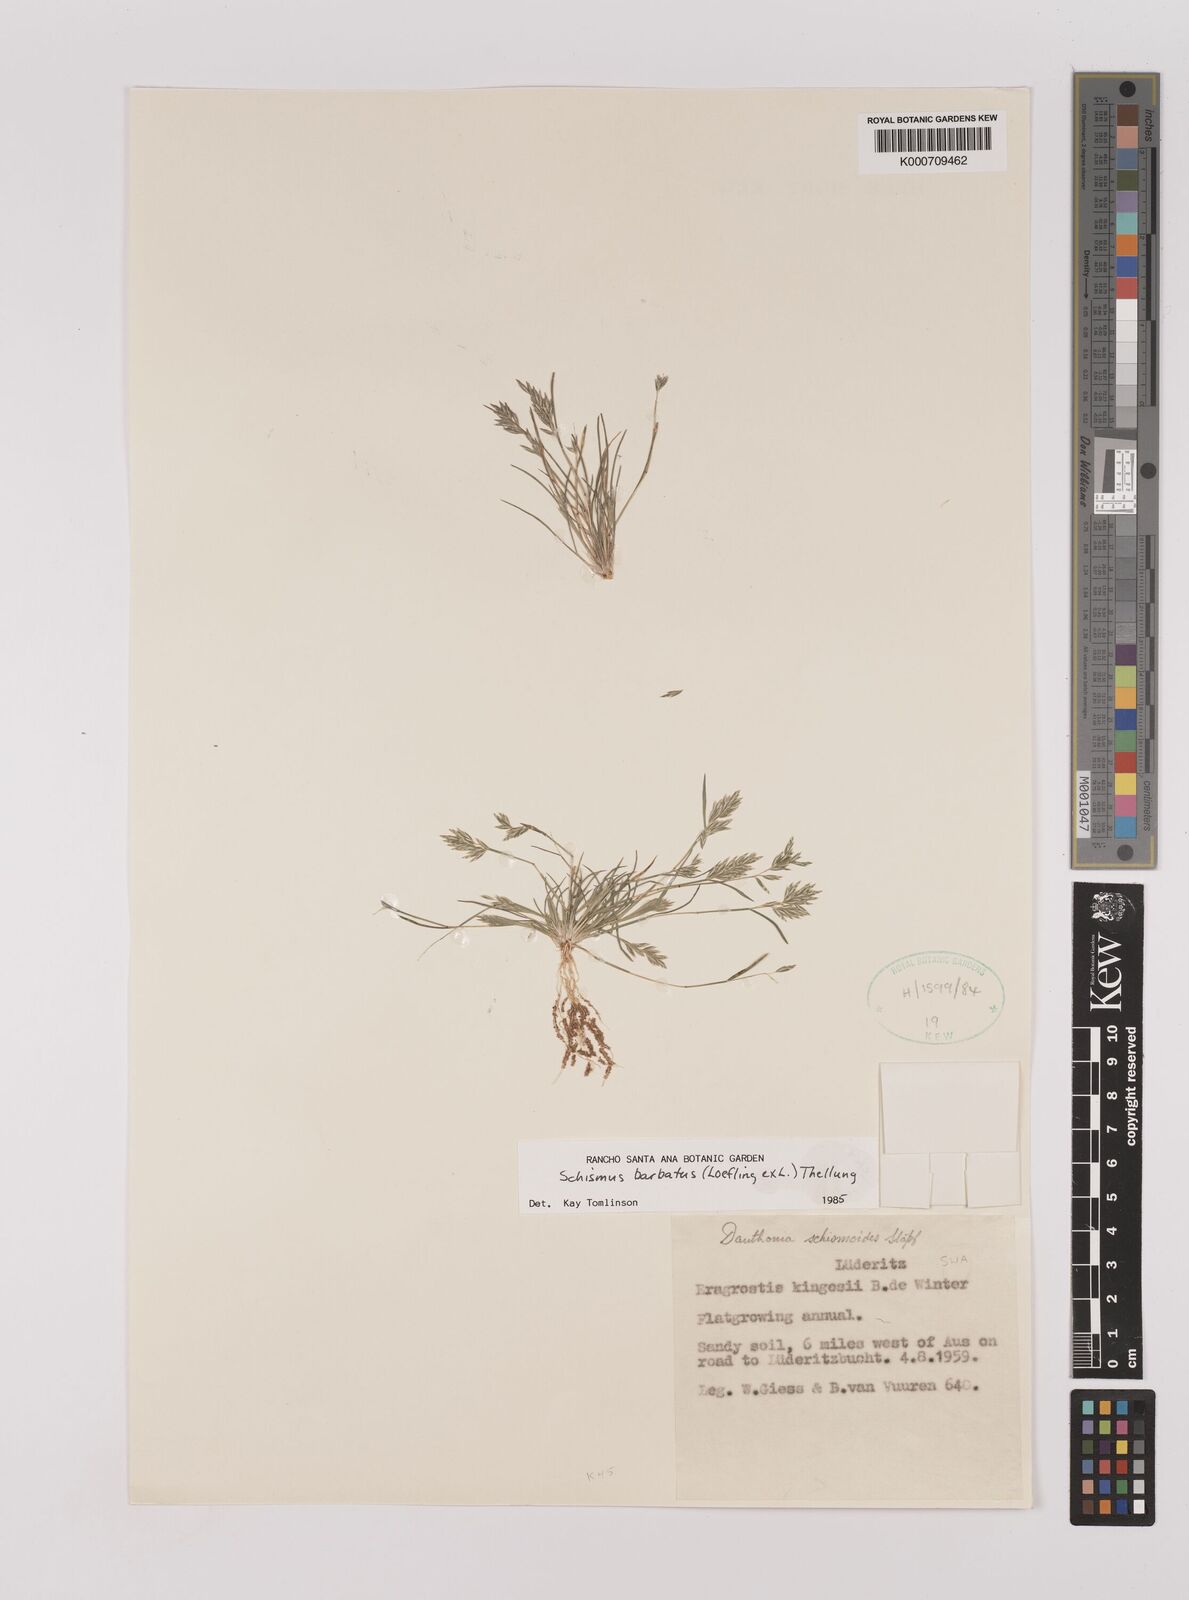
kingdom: Plantae
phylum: Tracheophyta
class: Liliopsida
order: Poales
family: Poaceae
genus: Schismus
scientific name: Schismus barbatus
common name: Kelch-grass
